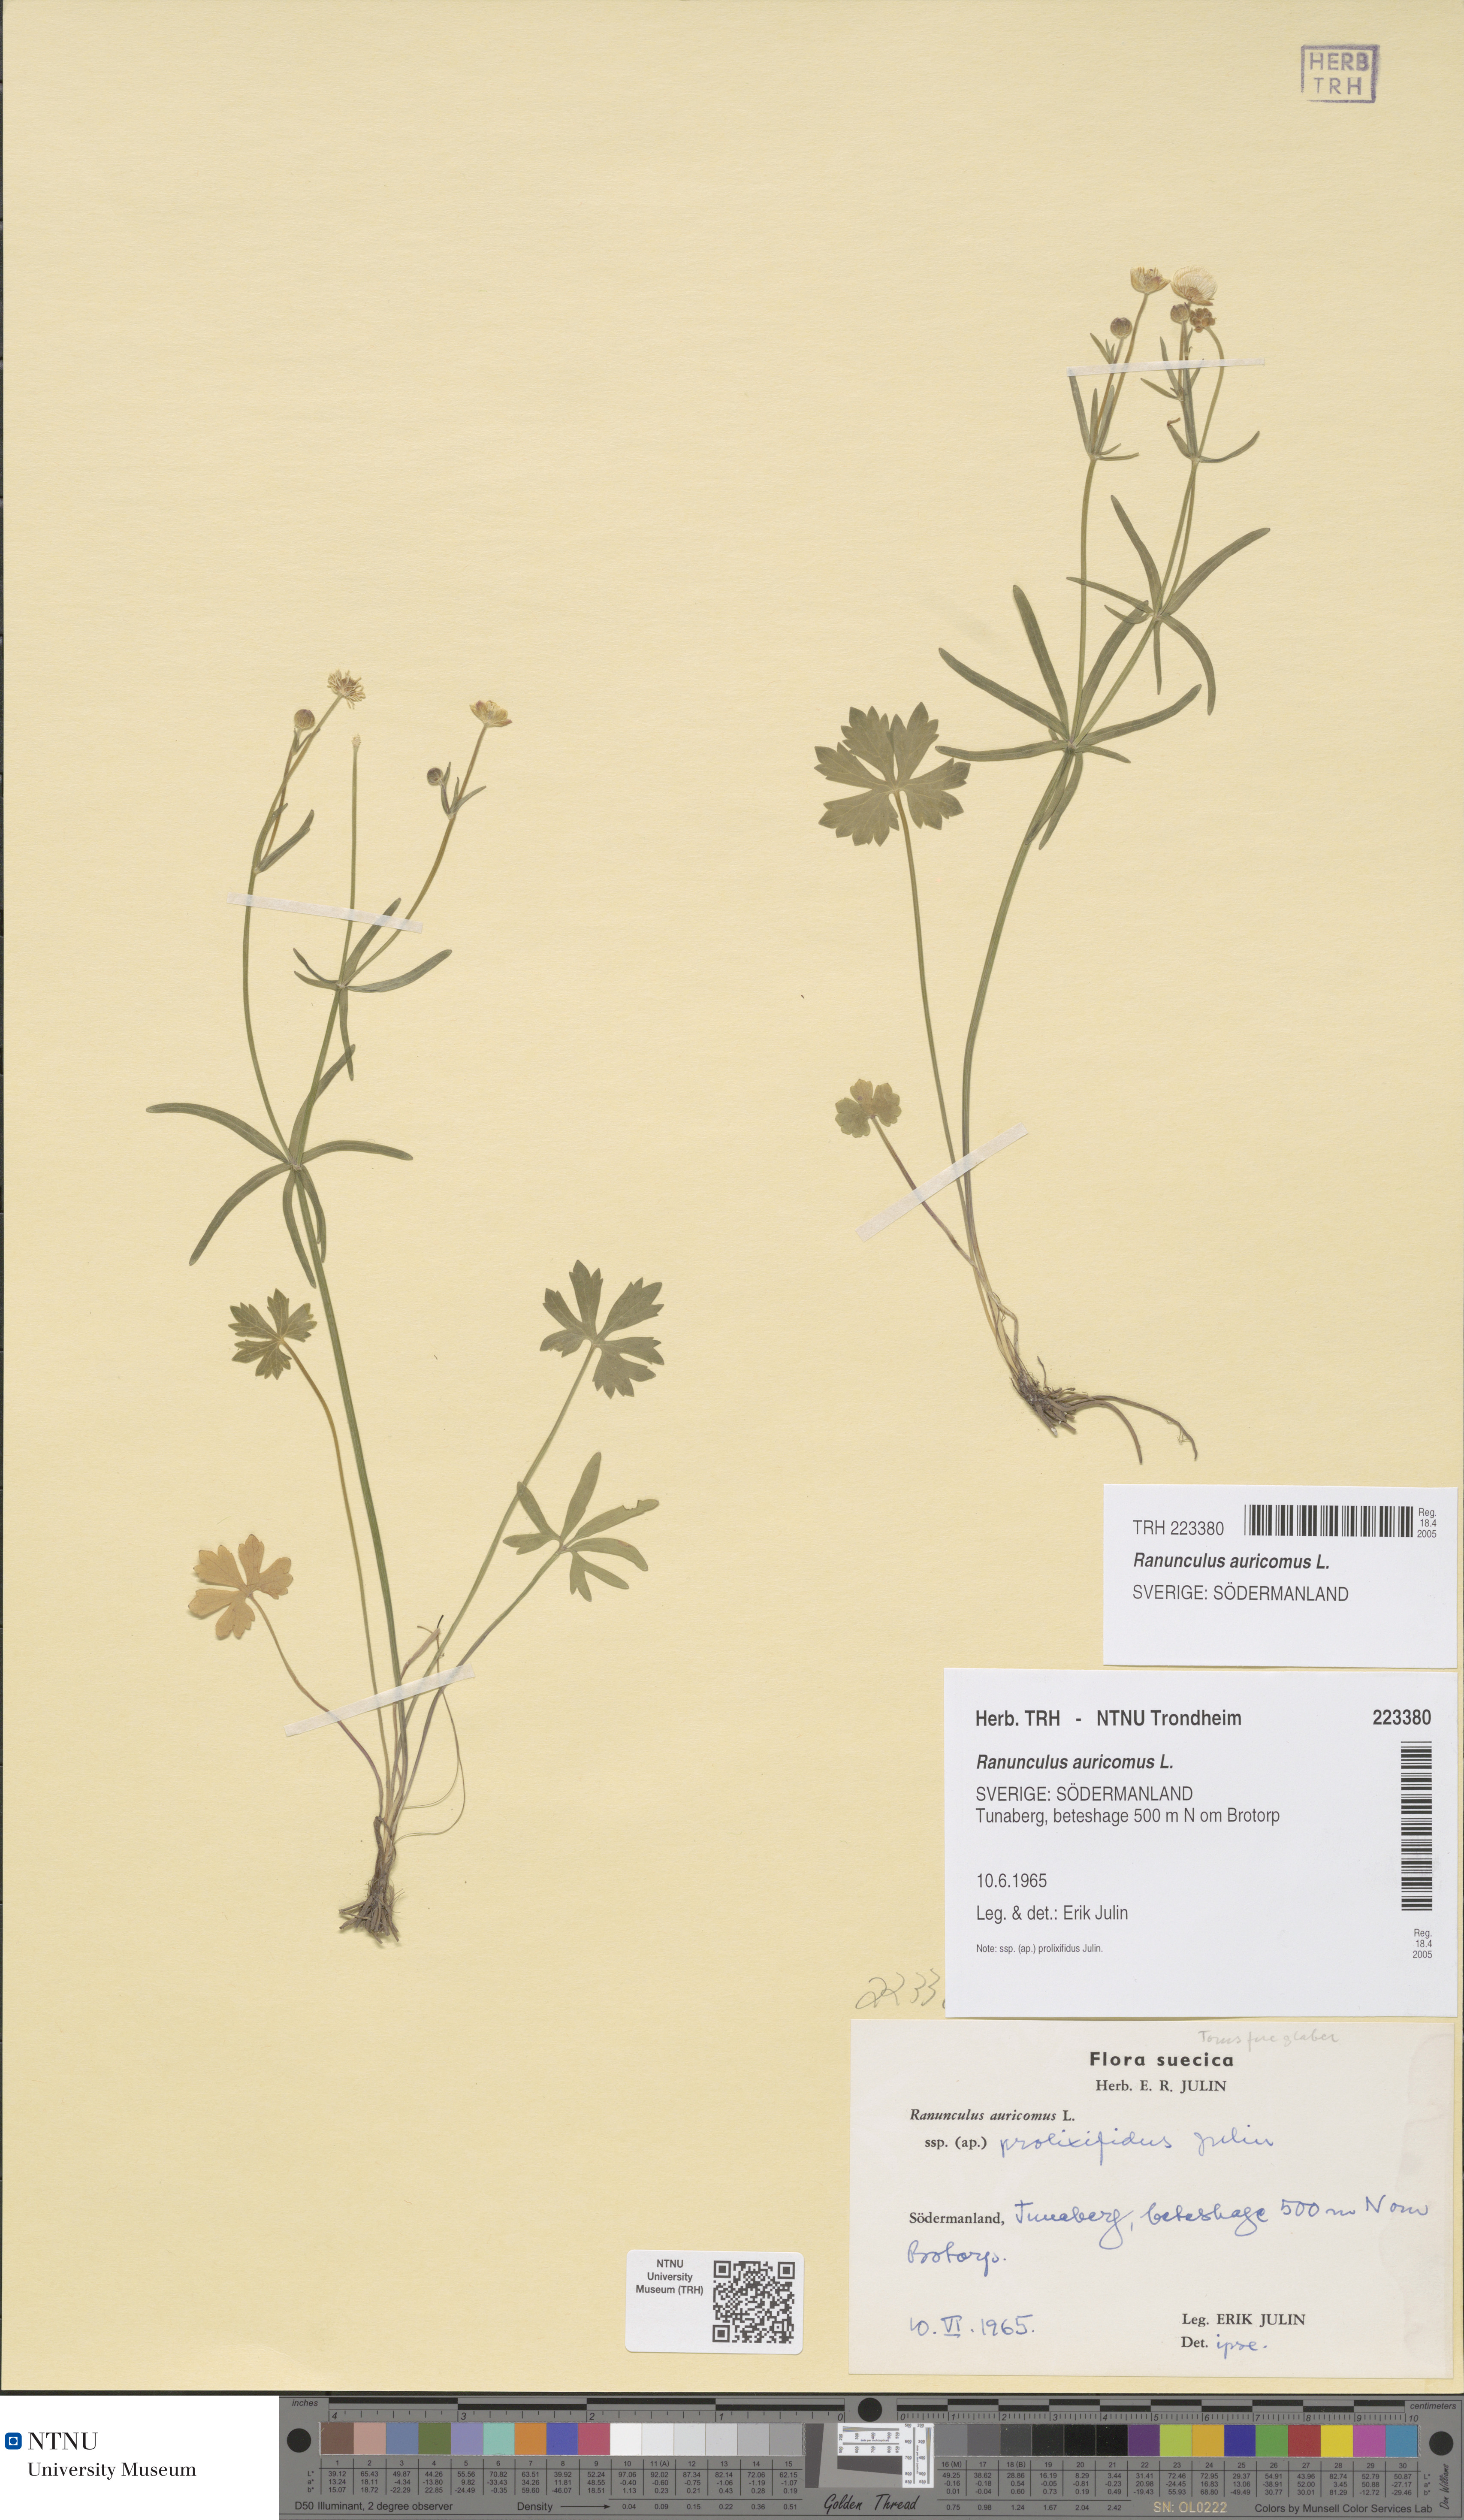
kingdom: Plantae
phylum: Tracheophyta
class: Magnoliopsida
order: Ranunculales
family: Ranunculaceae
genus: Ranunculus
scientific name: Ranunculus auricomus
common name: Goldilocks buttercup
